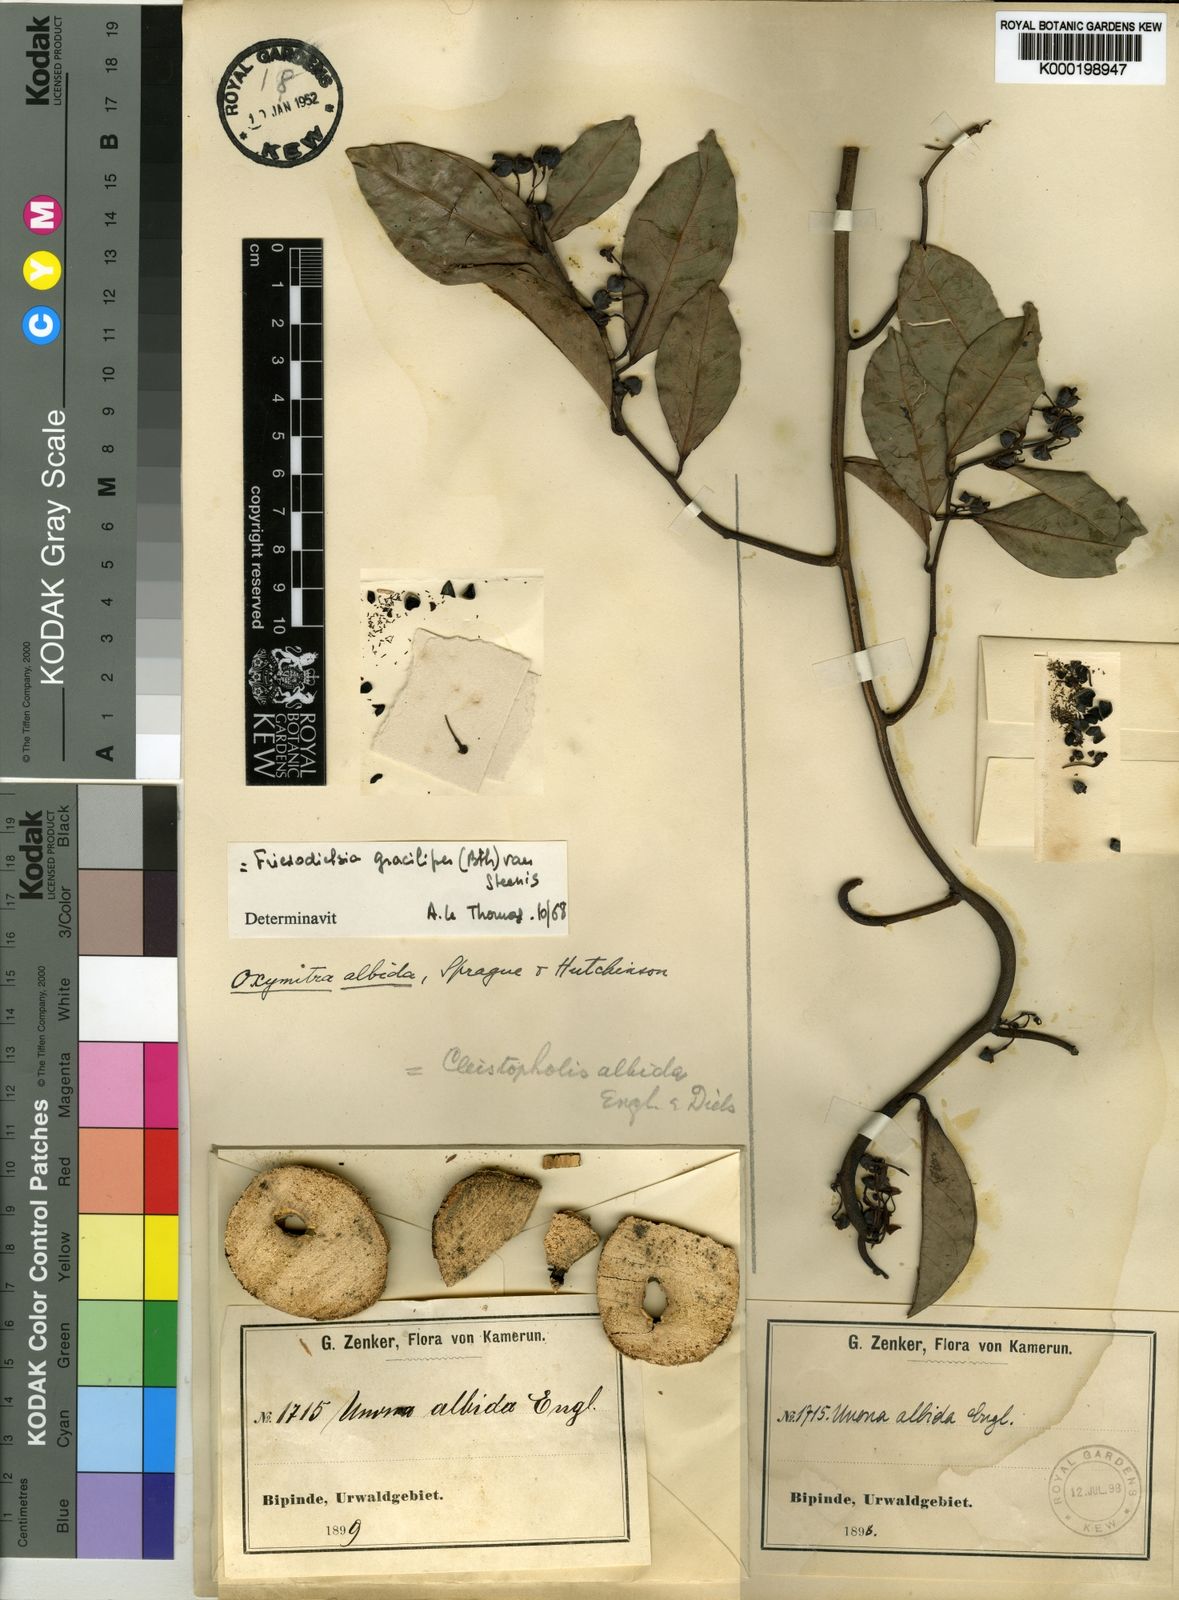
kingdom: Plantae
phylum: Tracheophyta
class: Magnoliopsida
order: Magnoliales
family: Annonaceae
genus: Friesodielsia
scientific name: Friesodielsia gracilipes
